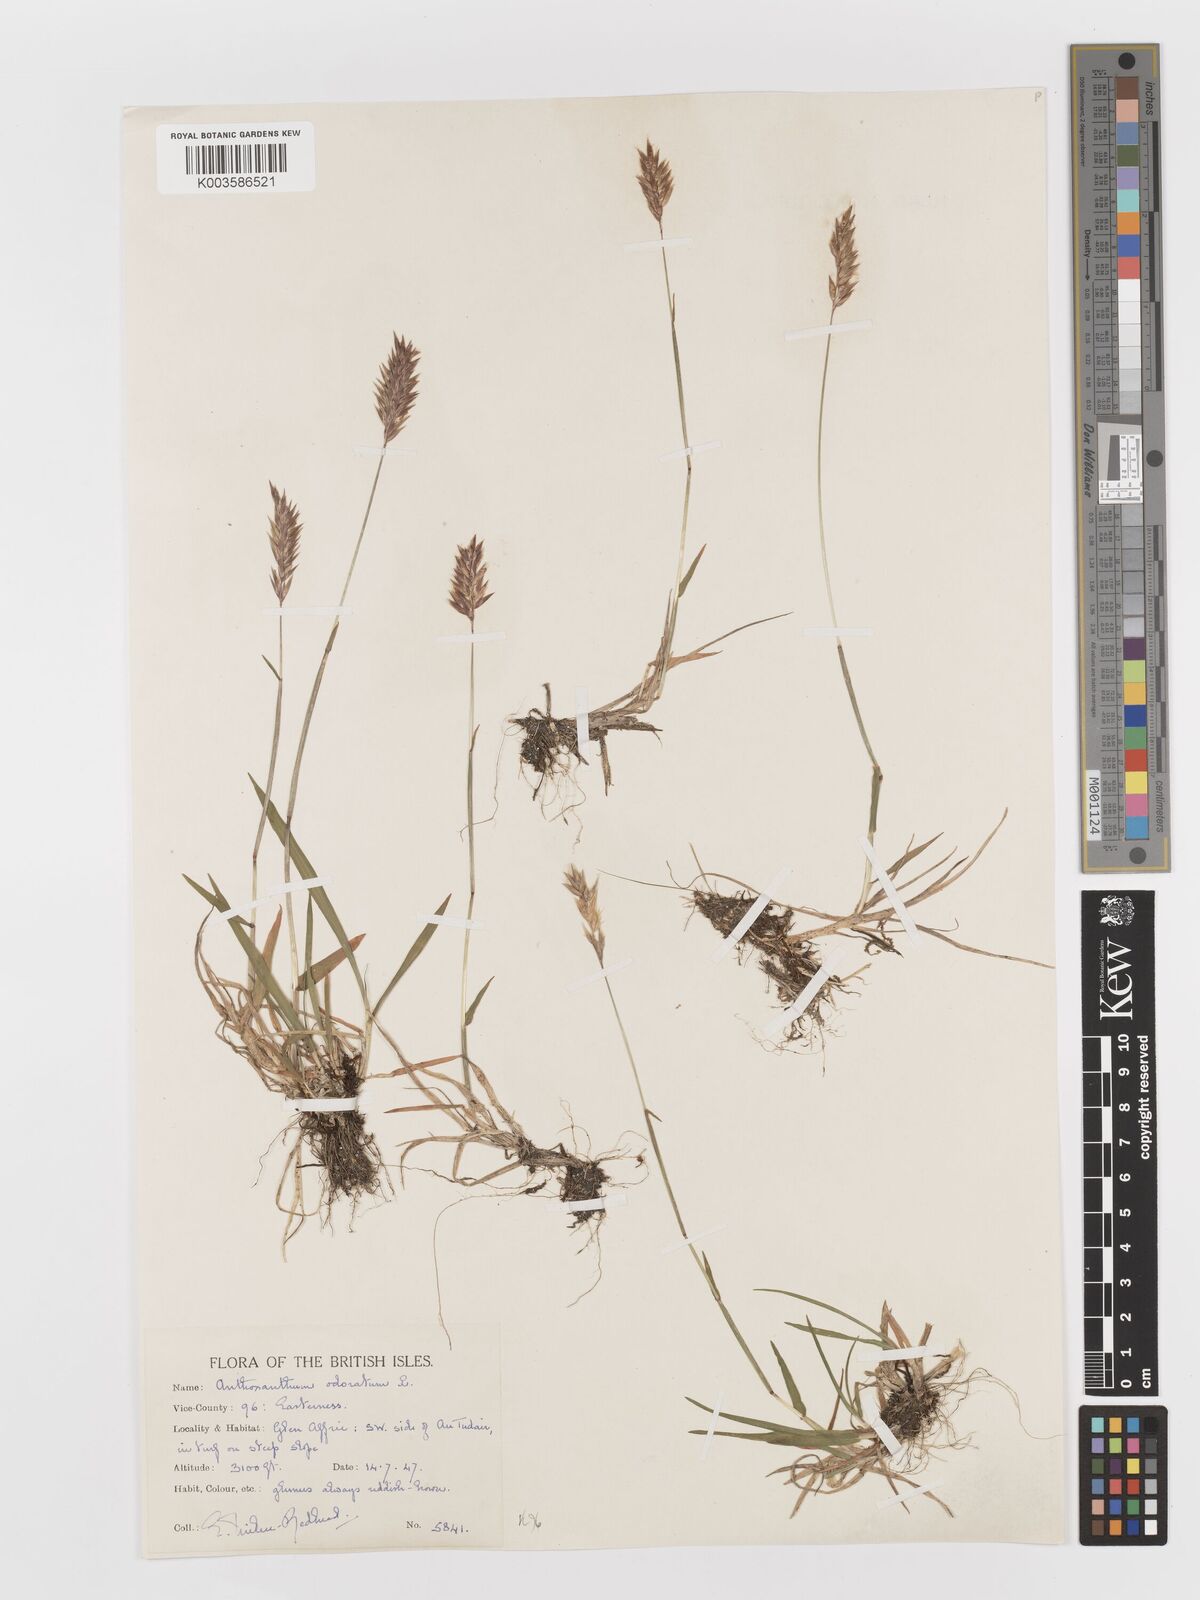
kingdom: Plantae
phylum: Tracheophyta
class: Liliopsida
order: Poales
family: Poaceae
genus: Anthoxanthum
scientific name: Anthoxanthum odoratum
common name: Sweet vernalgrass
